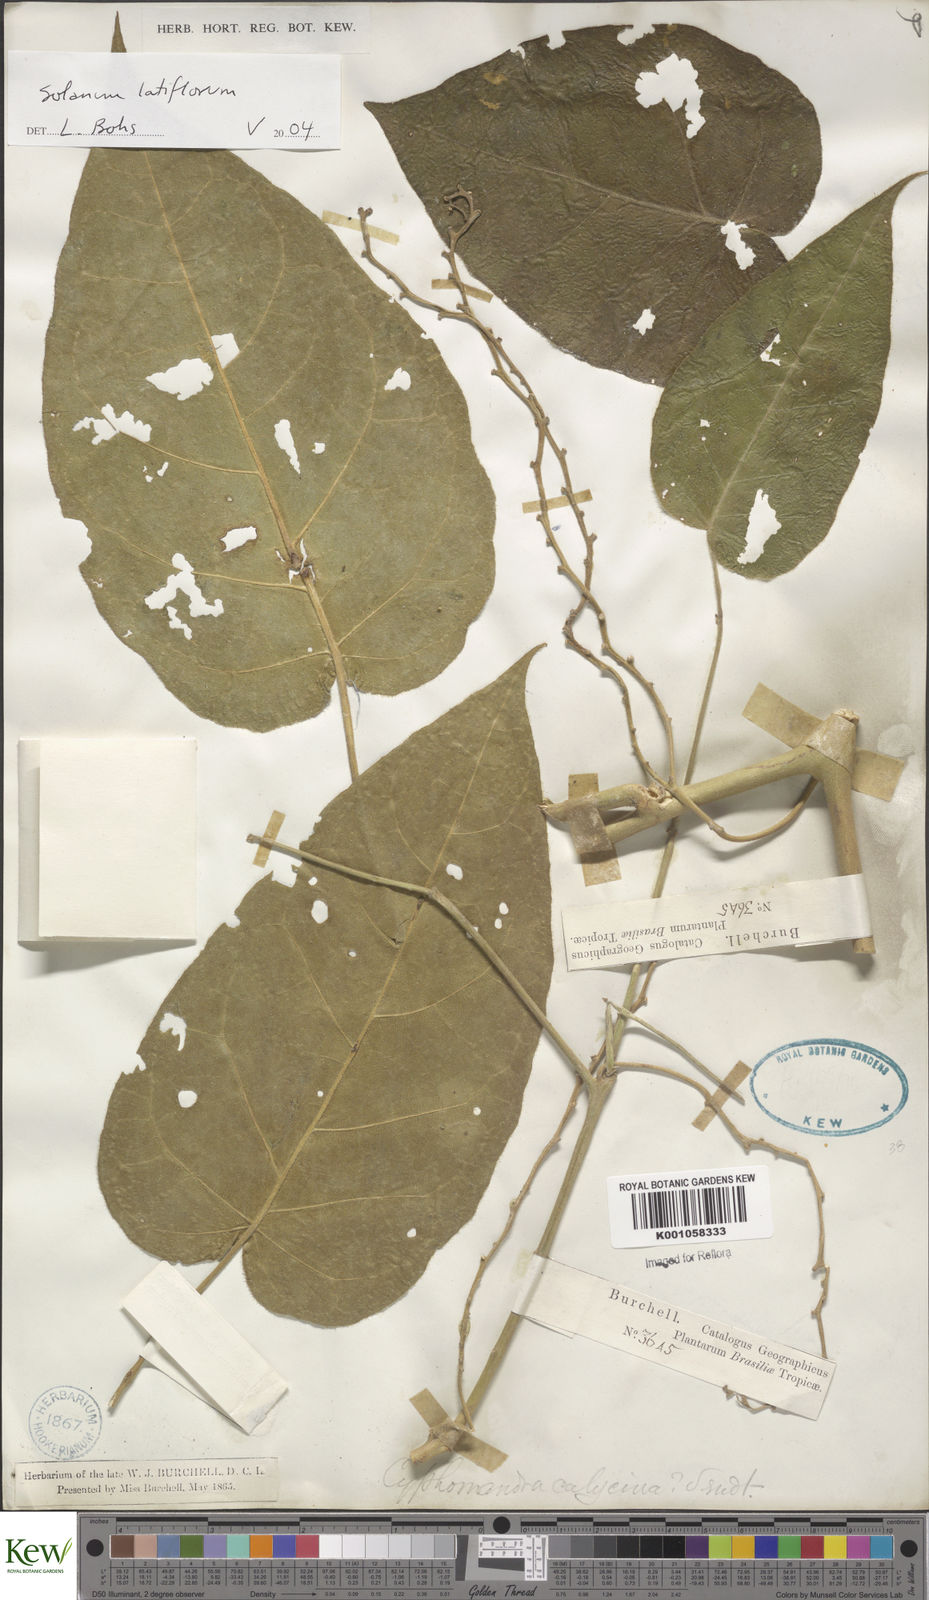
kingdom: Plantae
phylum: Tracheophyta
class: Magnoliopsida
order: Solanales
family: Solanaceae
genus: Solanum
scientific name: Solanum latiflorum
